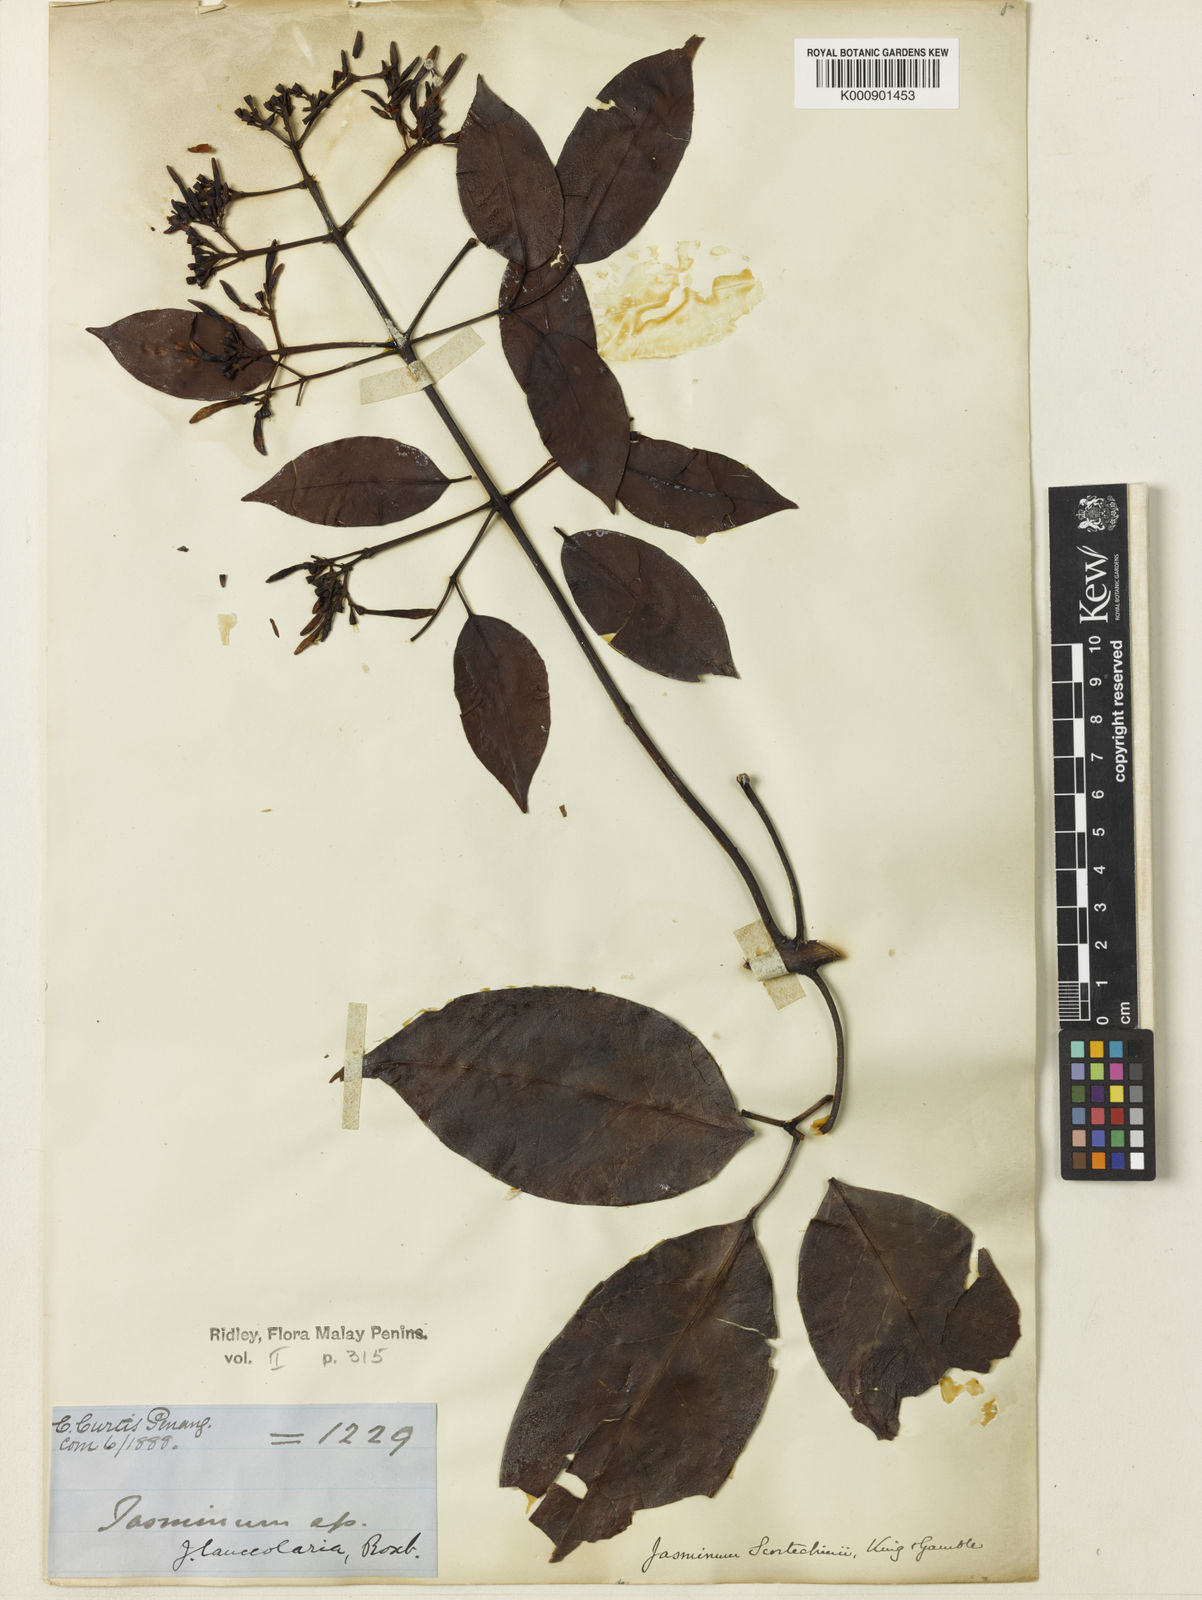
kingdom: Plantae
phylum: Tracheophyta
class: Magnoliopsida
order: Lamiales
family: Oleaceae
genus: Jasminum
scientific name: Jasminum lanceolaria
